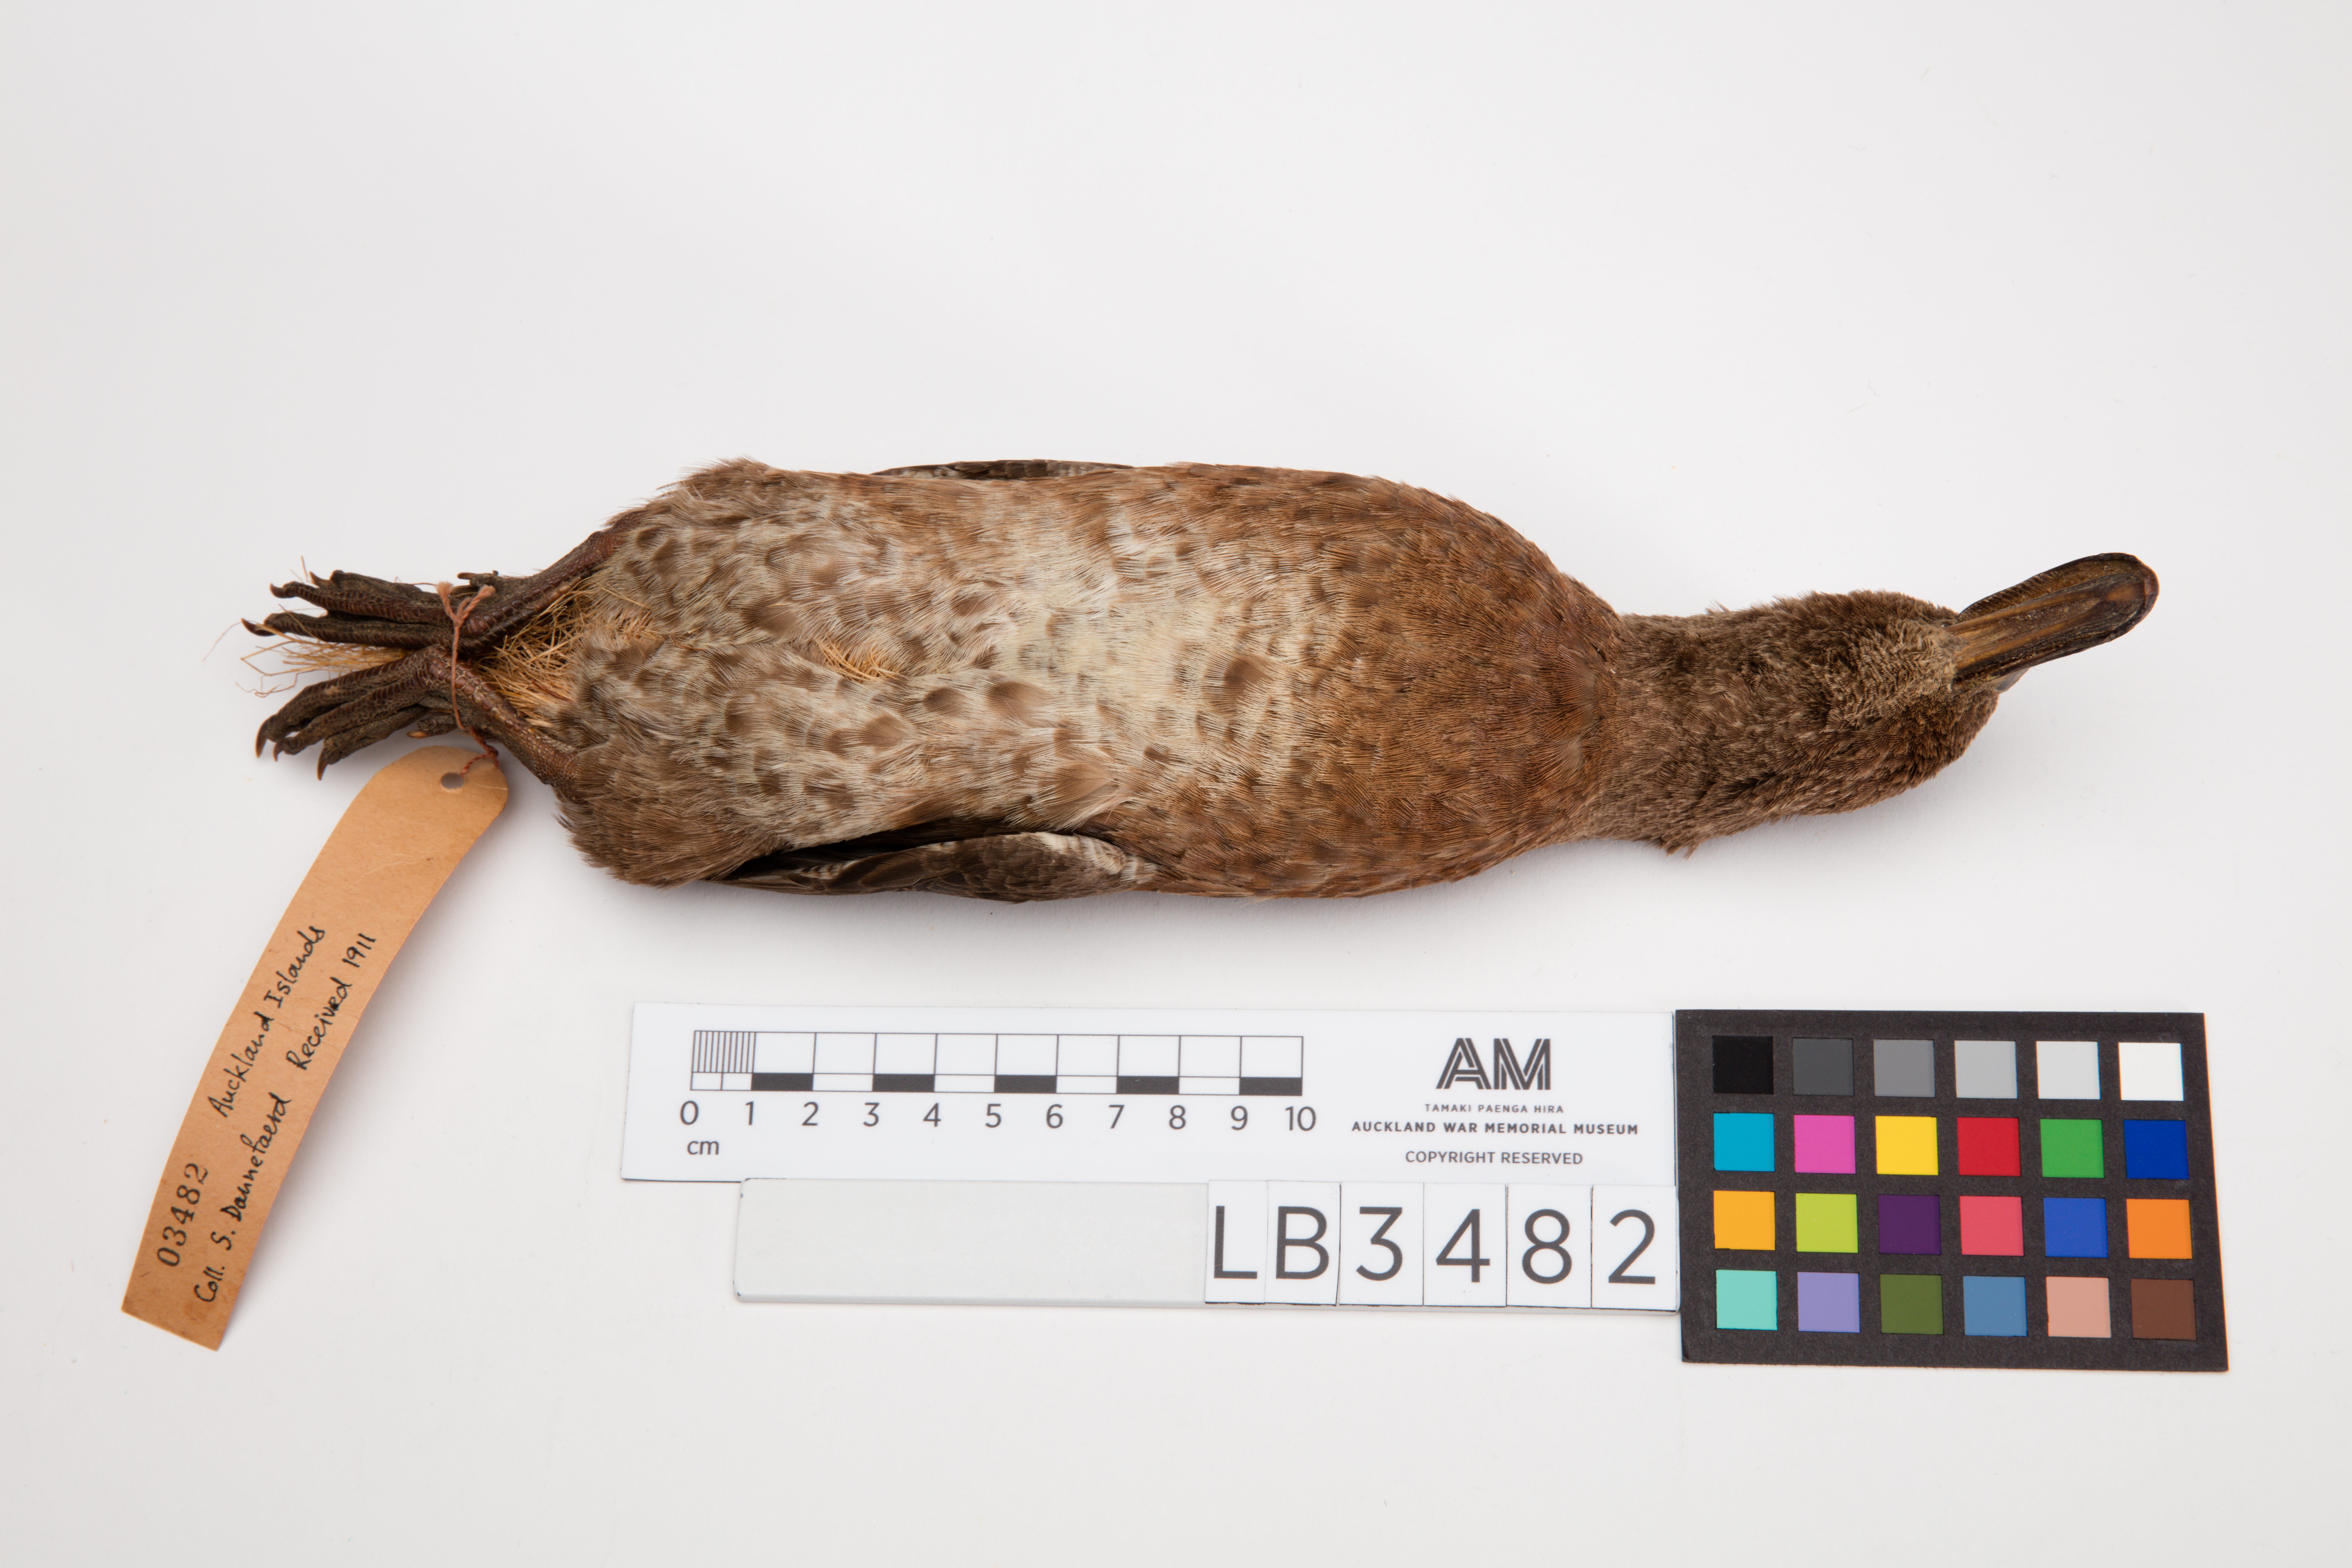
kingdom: Animalia
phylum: Chordata
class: Aves
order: Anseriformes
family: Anatidae
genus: Anas
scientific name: Anas aucklandica
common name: Auckland teal
